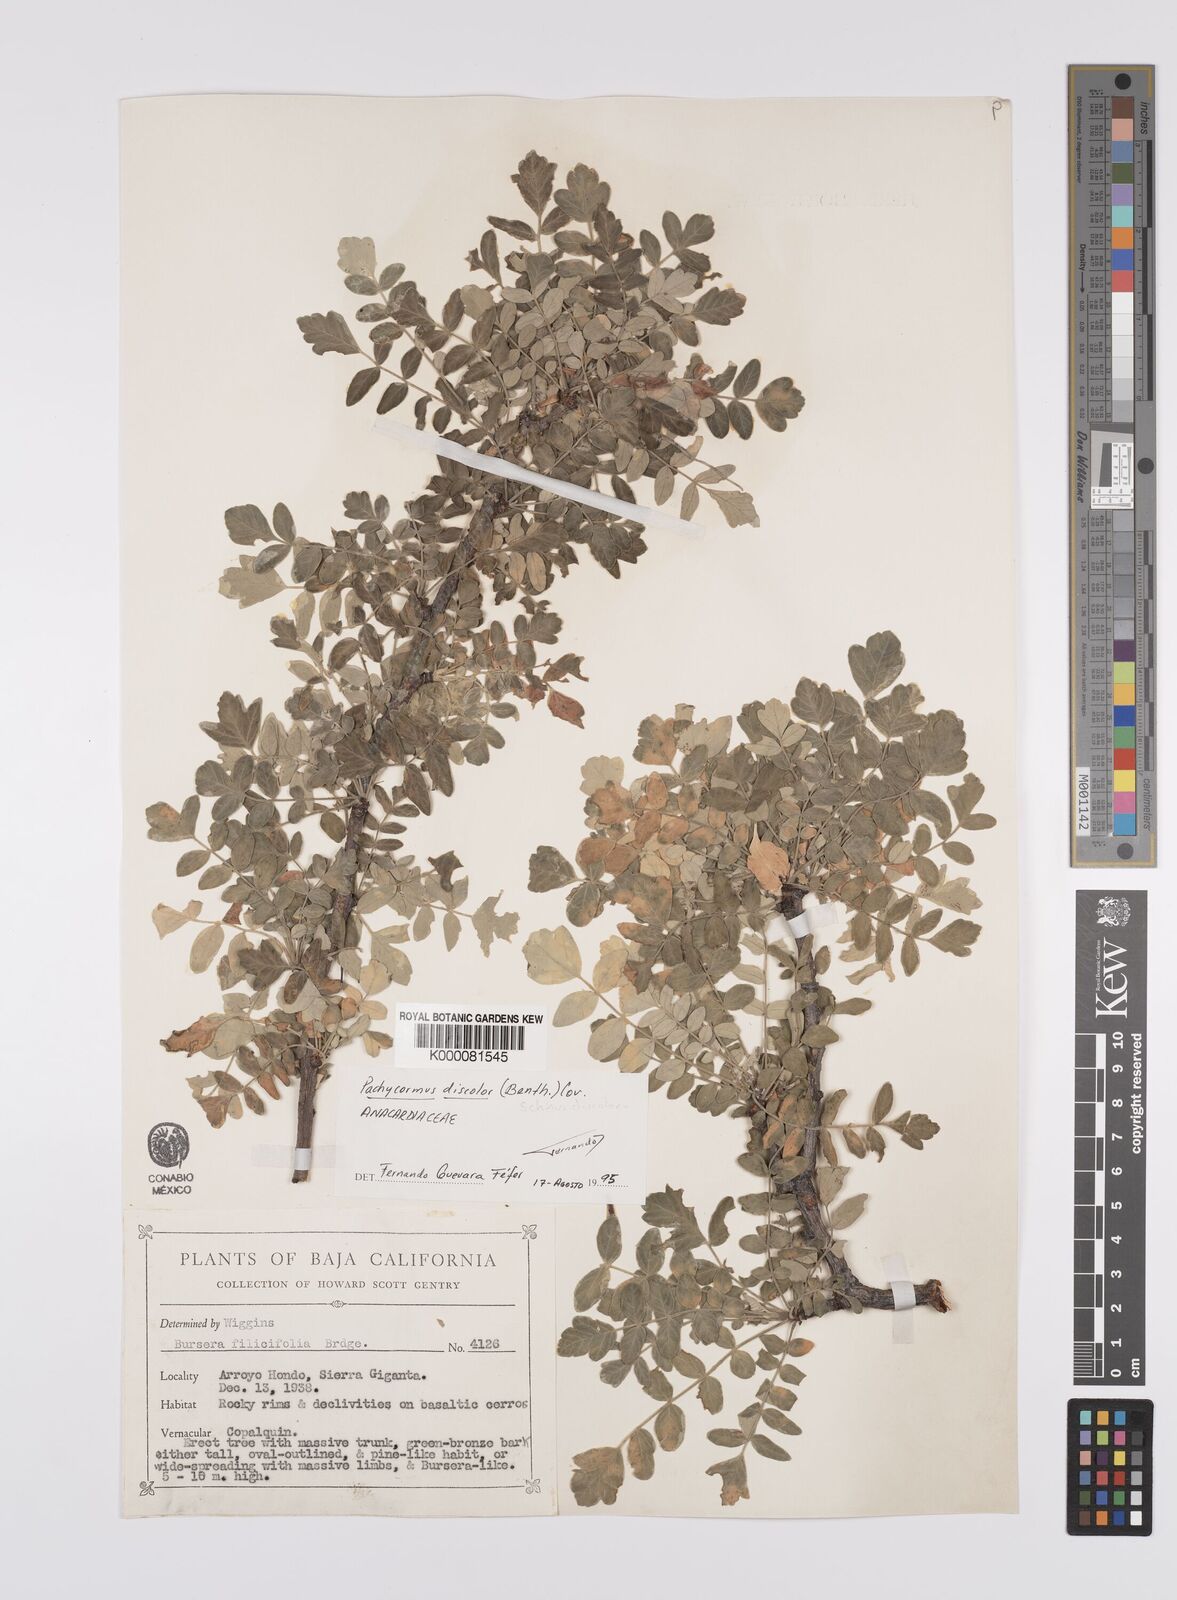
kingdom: Plantae
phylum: Tracheophyta
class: Magnoliopsida
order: Sapindales
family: Anacardiaceae
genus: Pachycormus
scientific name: Pachycormus
